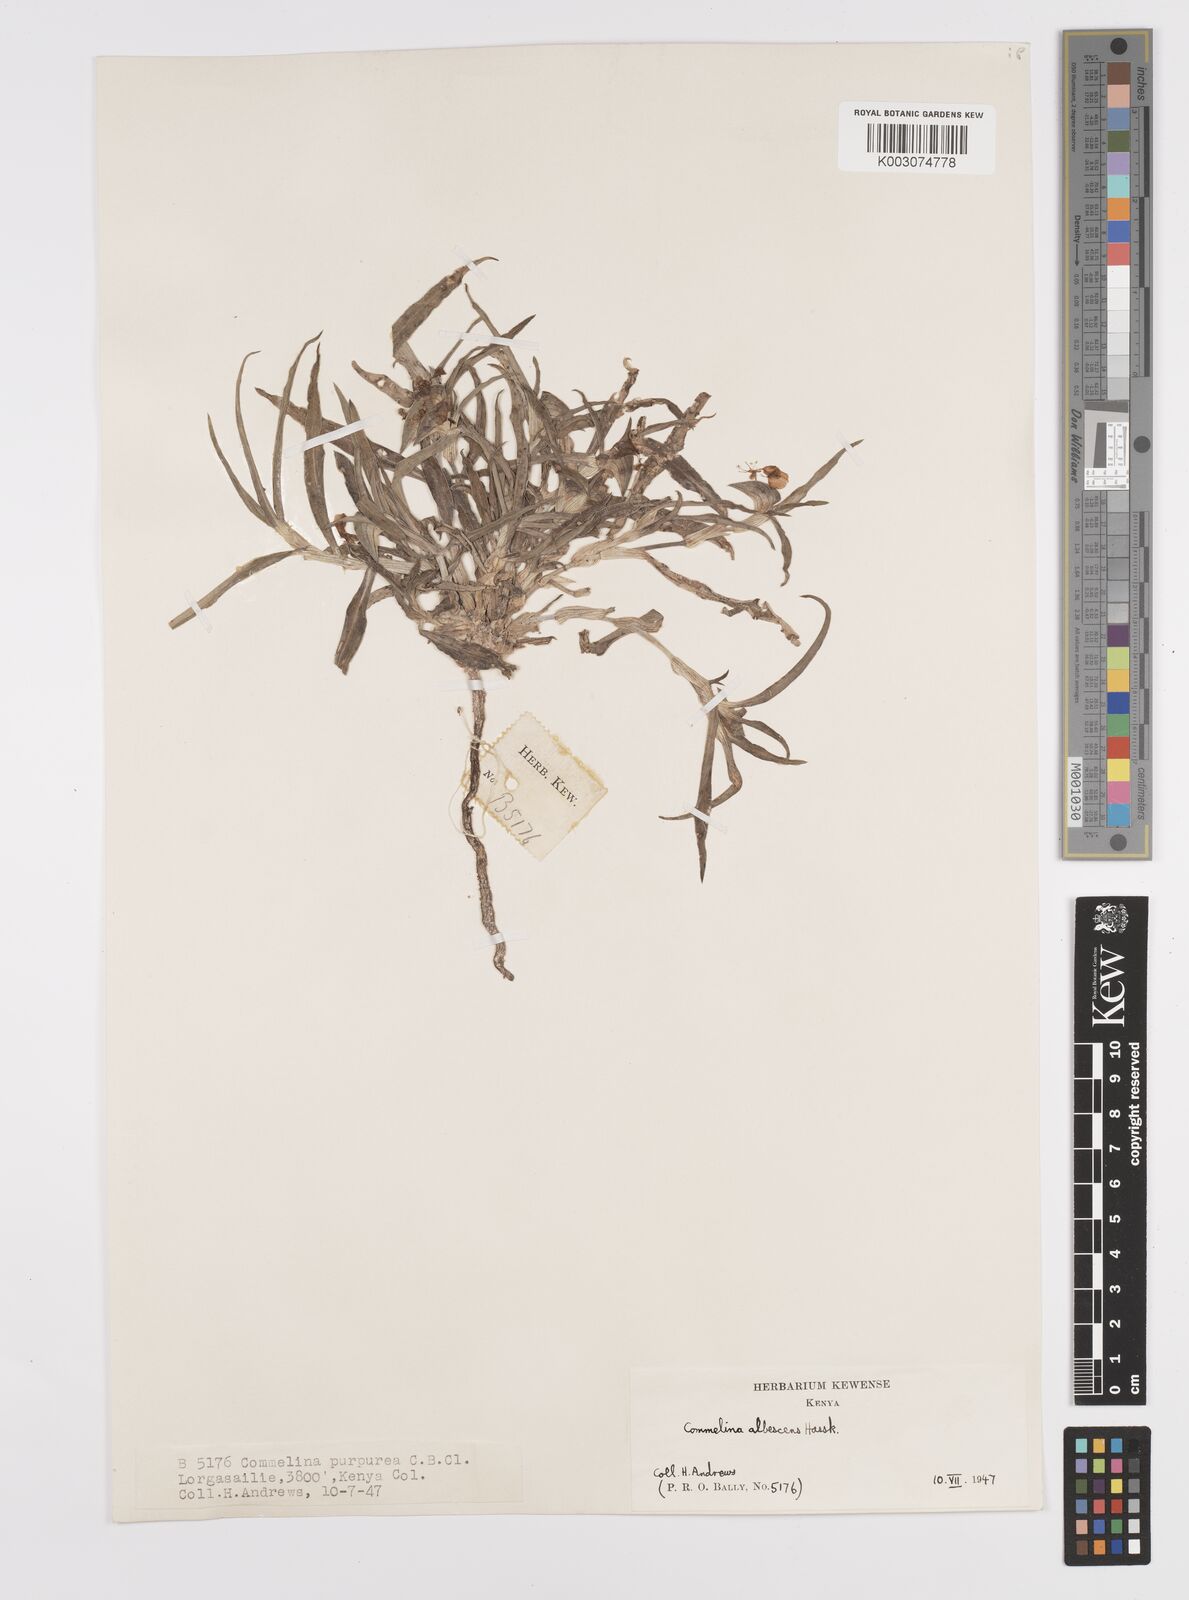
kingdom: Plantae
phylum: Tracheophyta
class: Liliopsida
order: Commelinales
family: Commelinaceae
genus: Commelina
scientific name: Commelina albescens
